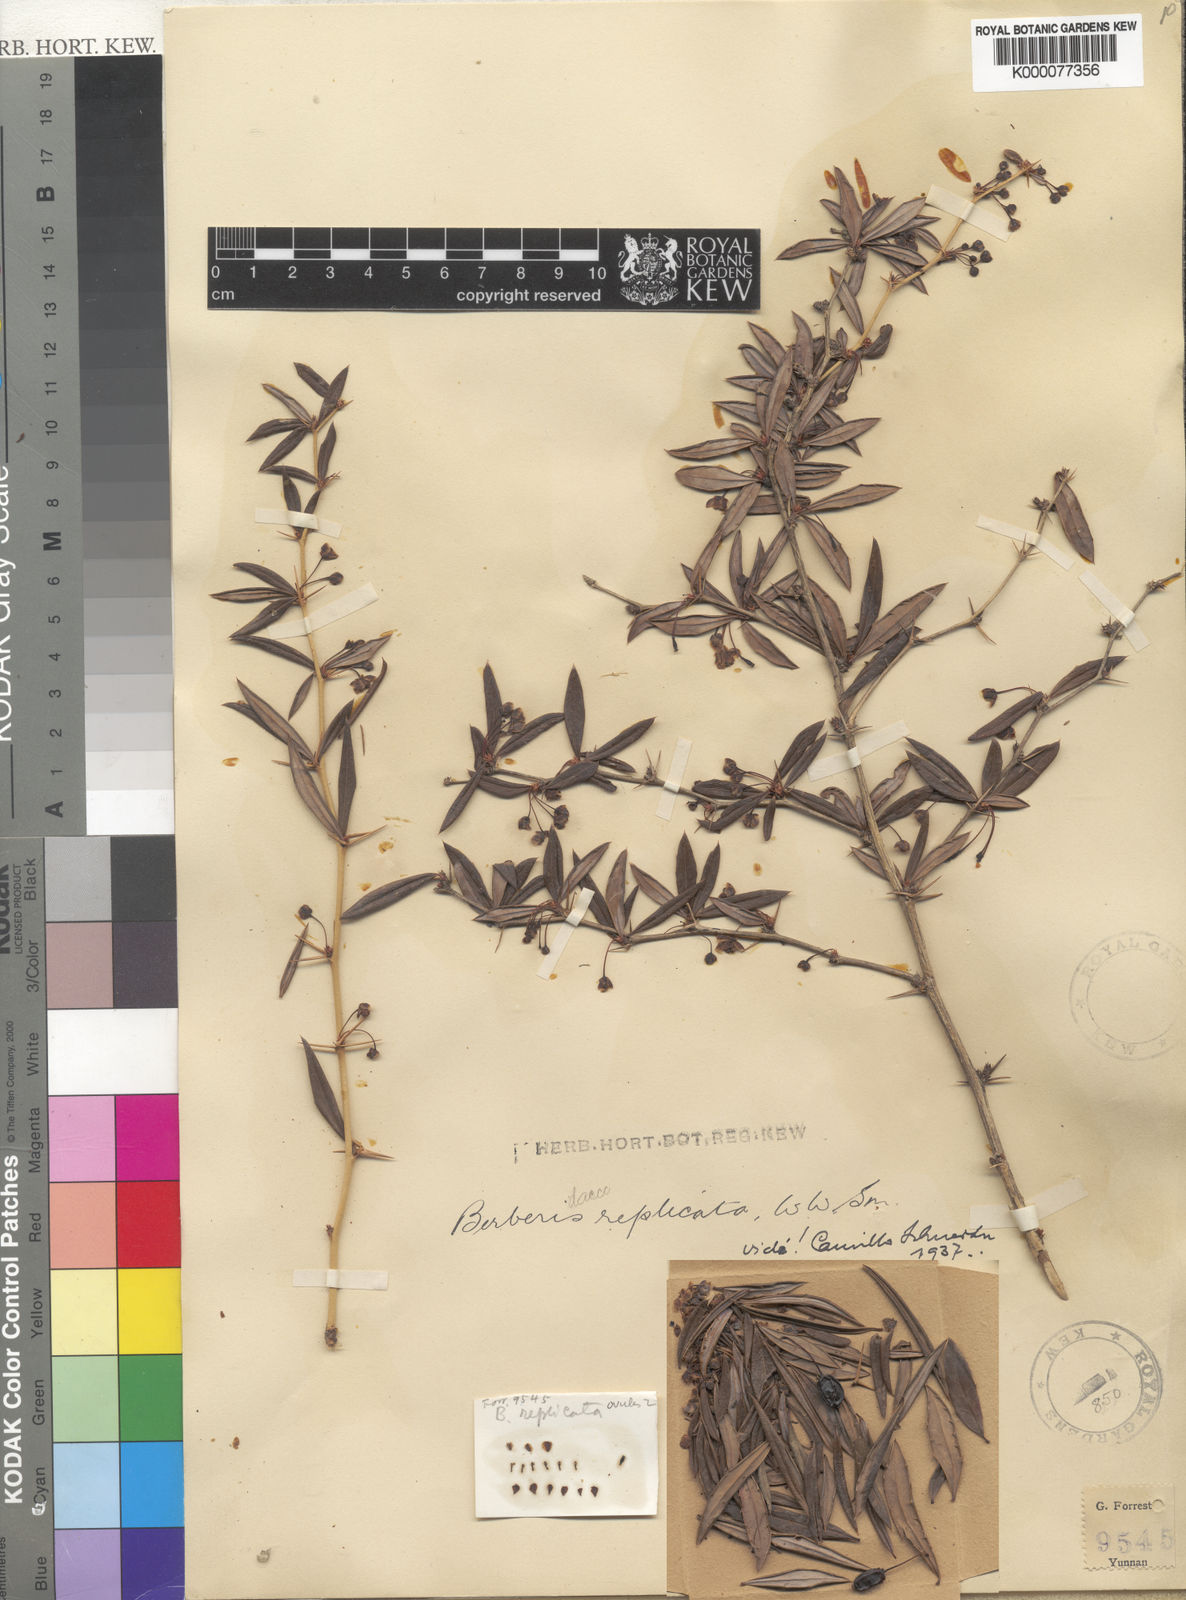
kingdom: Plantae
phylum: Tracheophyta
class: Magnoliopsida
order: Ranunculales
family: Berberidaceae
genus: Berberis
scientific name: Berberis replicata
